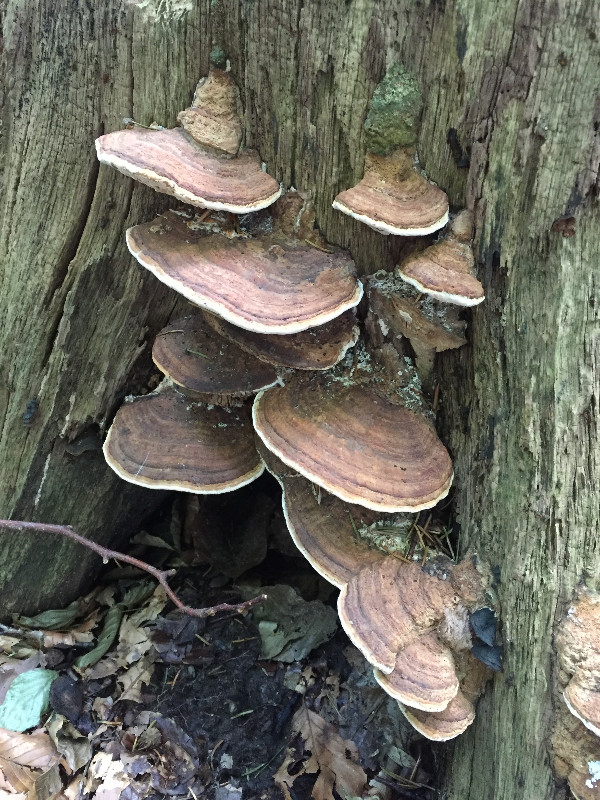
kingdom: Fungi
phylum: Basidiomycota
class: Agaricomycetes
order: Polyporales
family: Fomitopsidaceae
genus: Daedalea
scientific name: Daedalea quercina
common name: ege-labyrintsvamp
